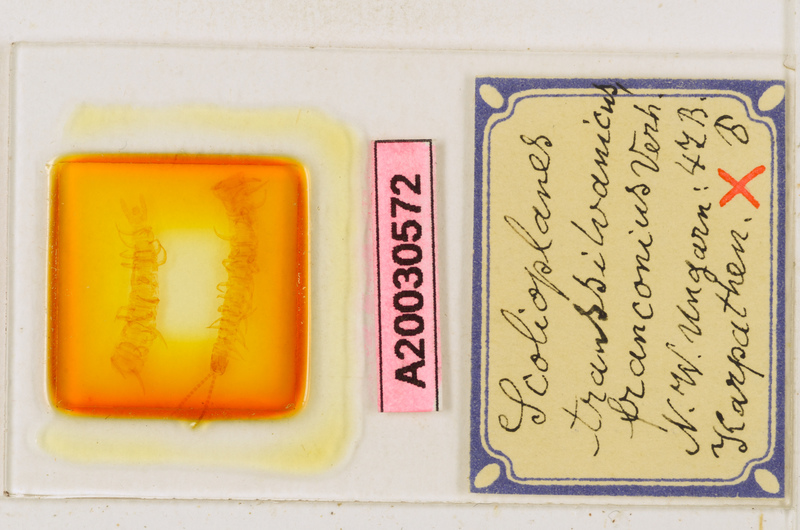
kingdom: Animalia
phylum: Arthropoda
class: Chilopoda
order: Geophilomorpha
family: Linotaeniidae
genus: Strigamia
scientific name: Strigamia transsilvanica
